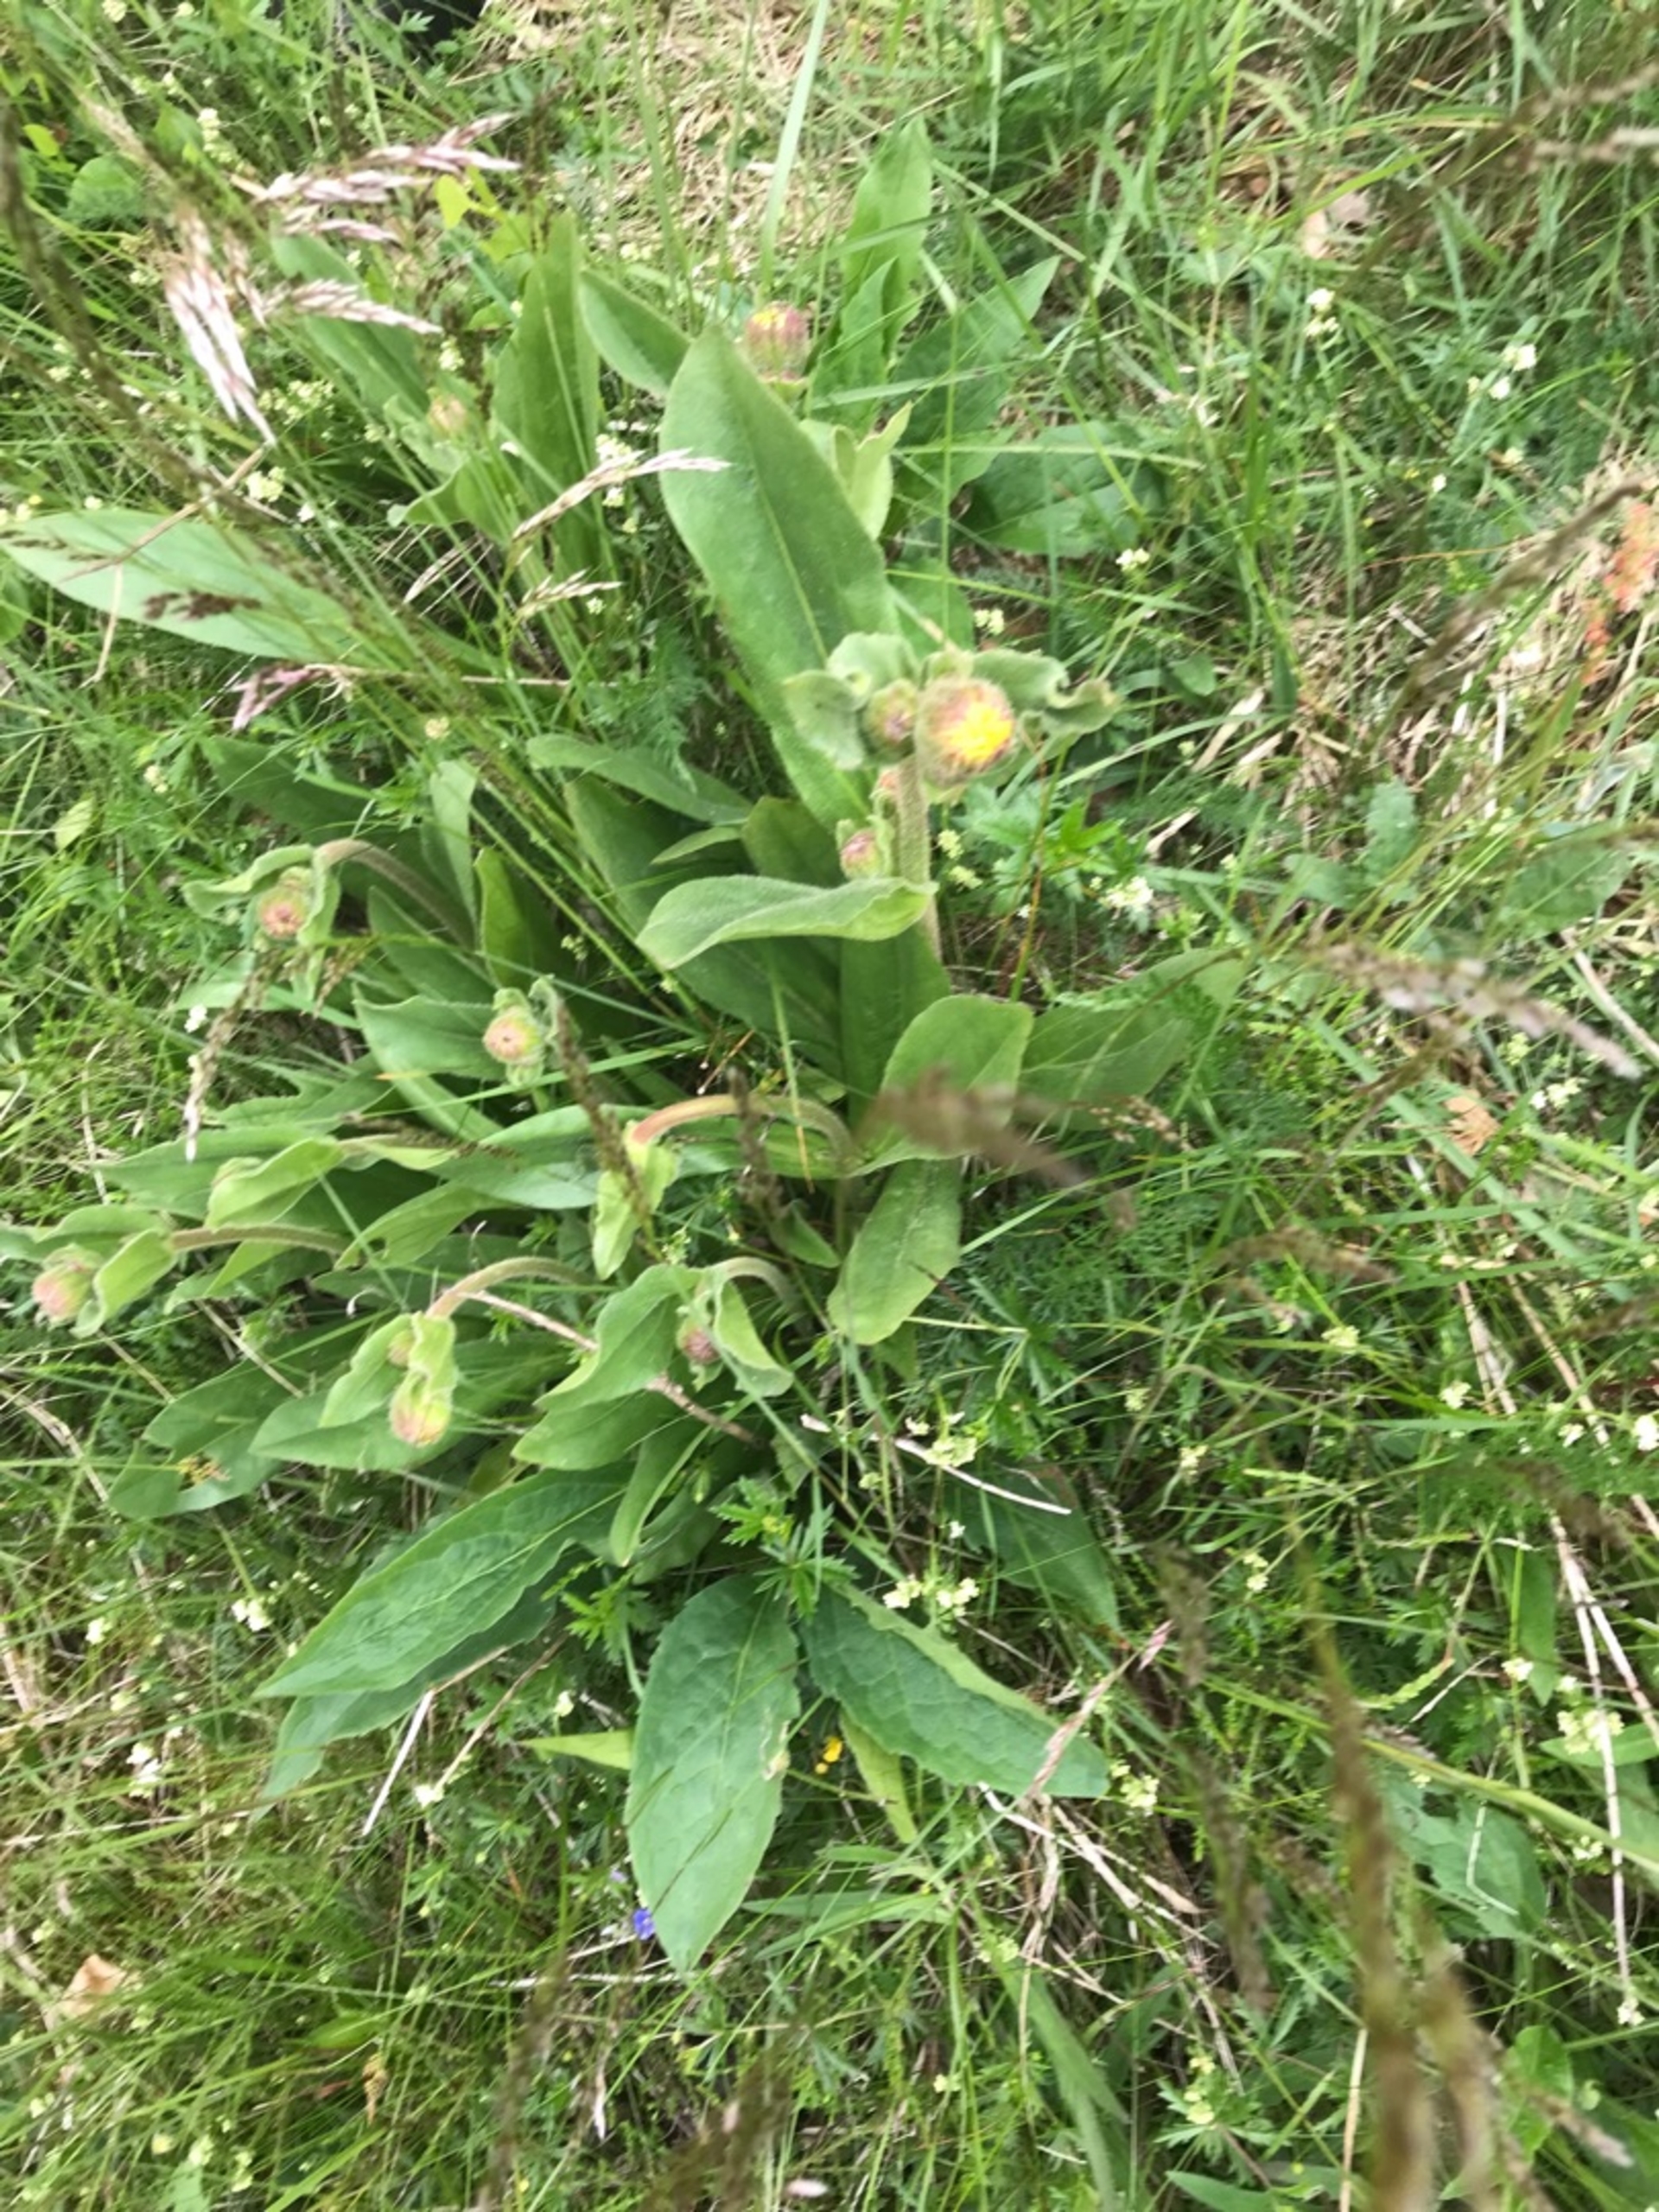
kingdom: Plantae
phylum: Tracheophyta
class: Magnoliopsida
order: Asterales
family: Asteraceae
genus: Arnica
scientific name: Arnica montana
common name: Guldblomme
